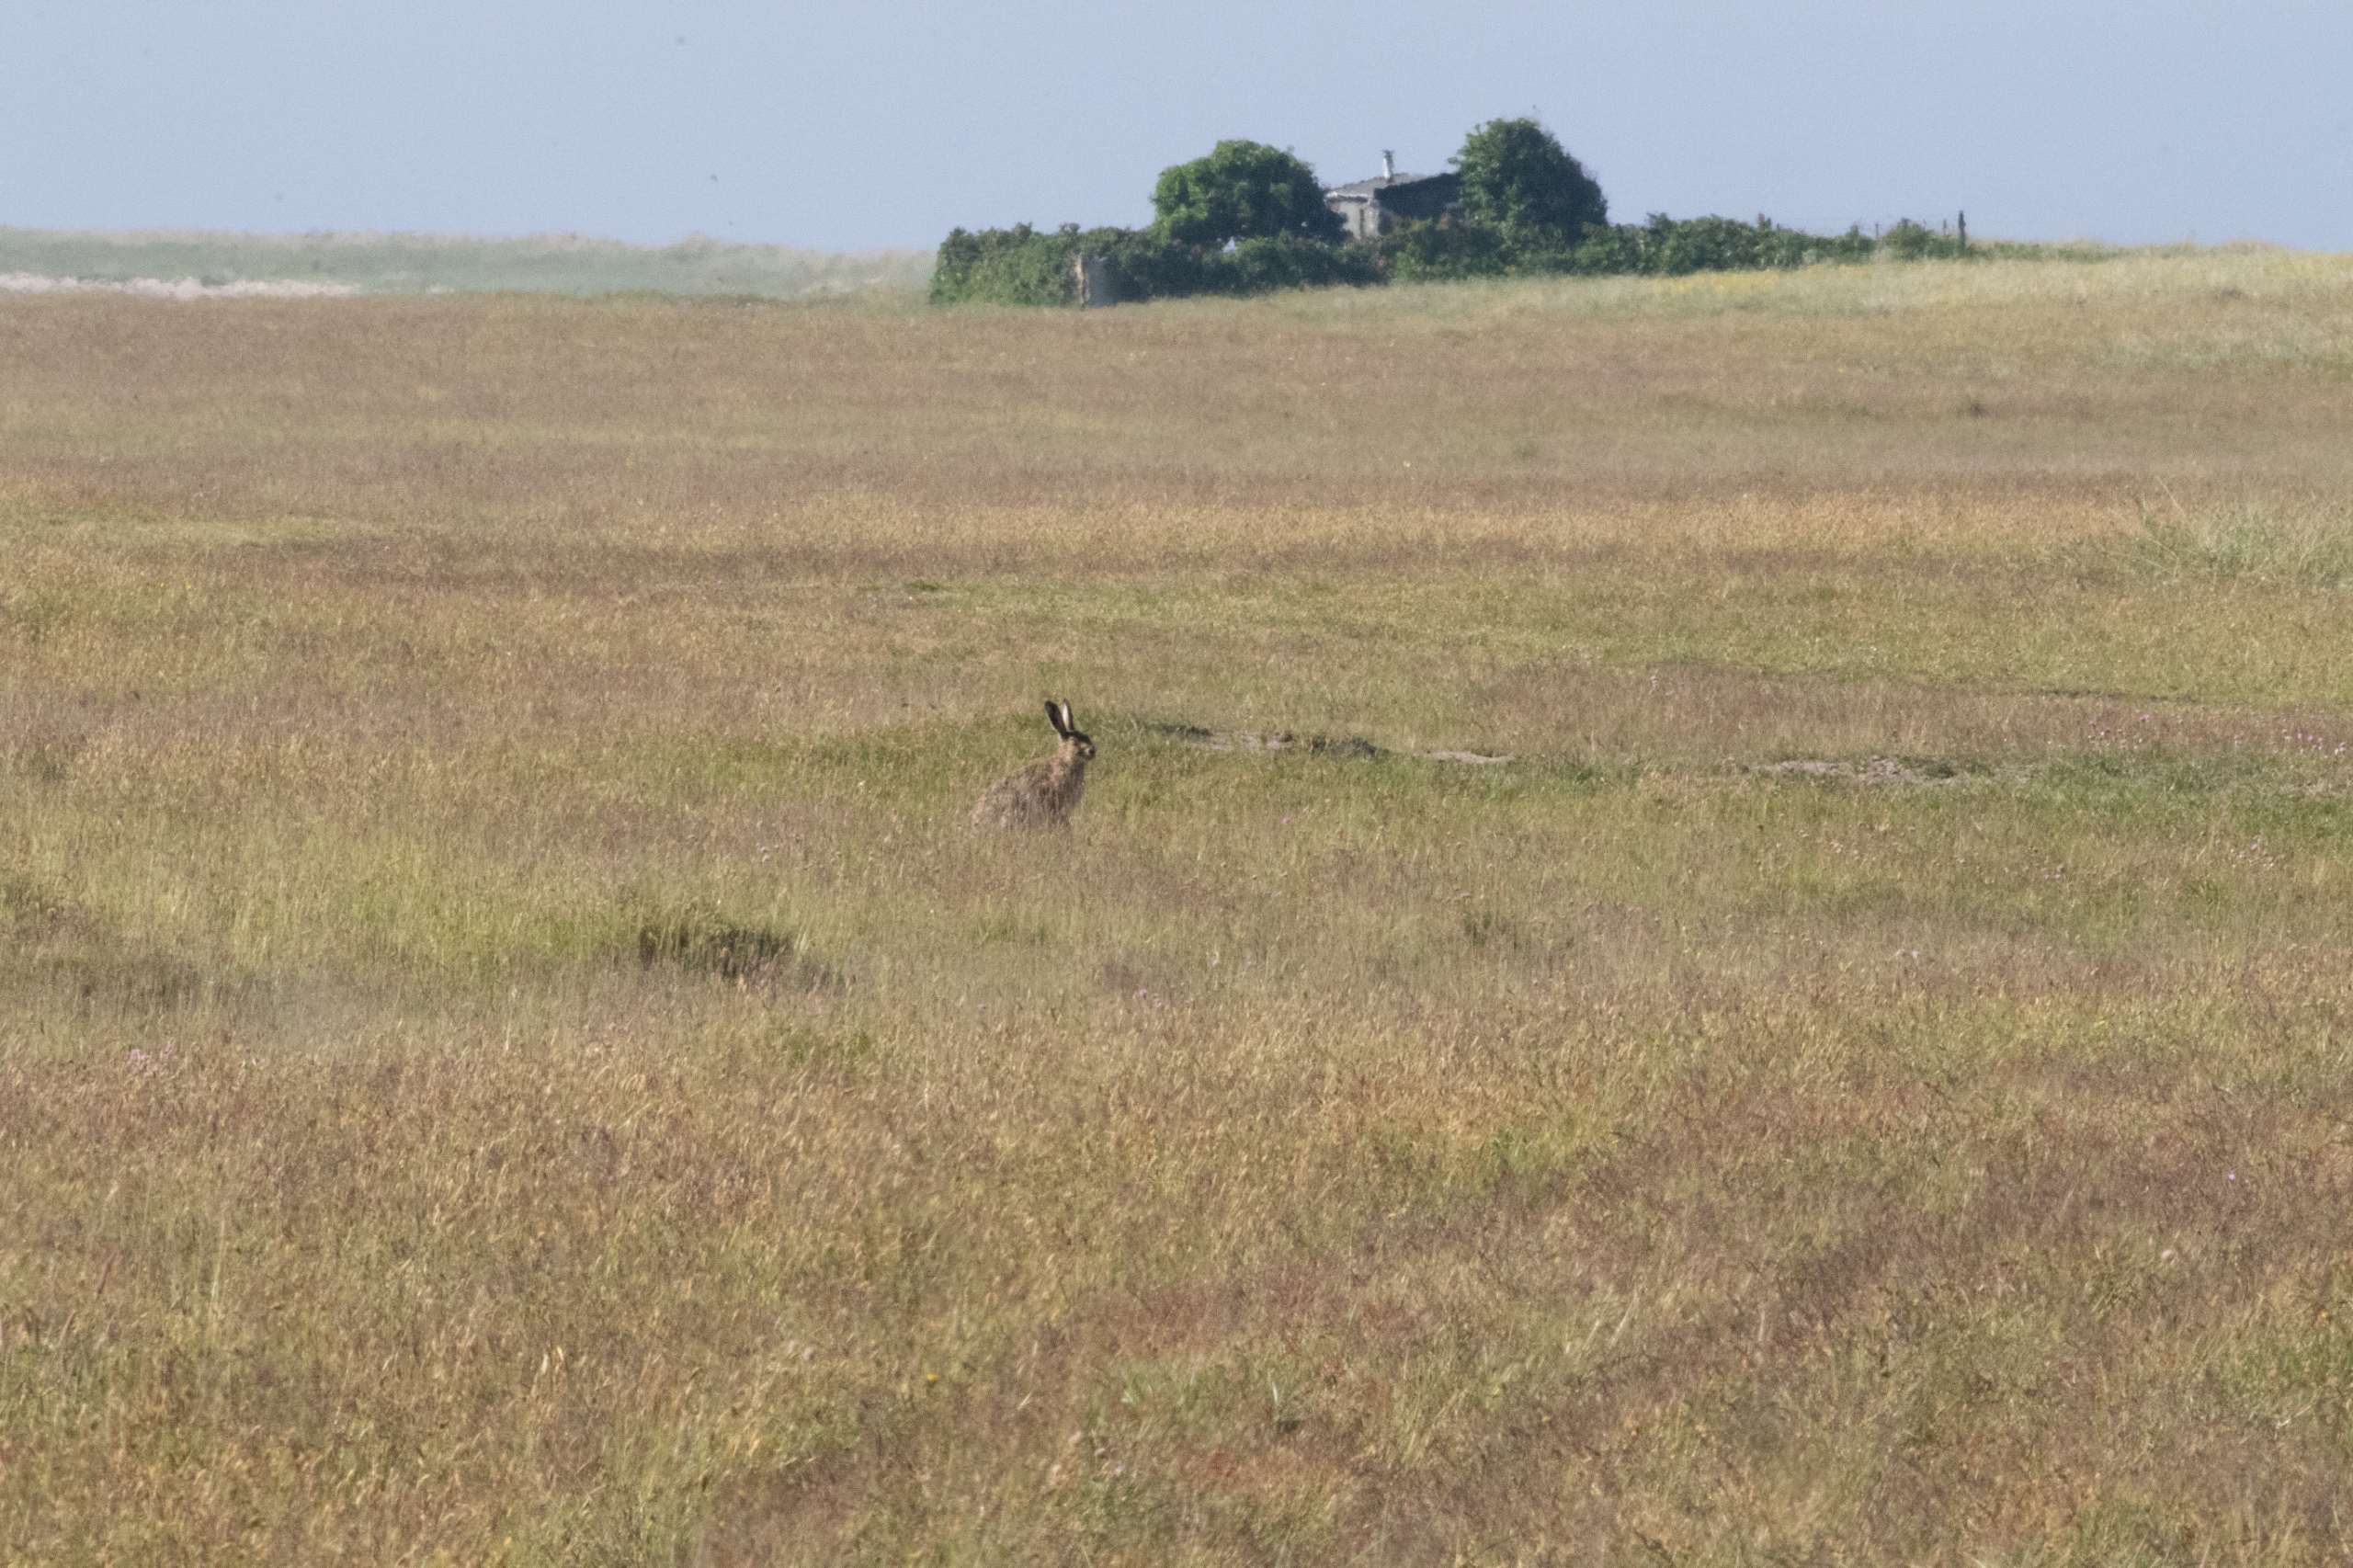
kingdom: Animalia
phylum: Chordata
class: Mammalia
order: Lagomorpha
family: Leporidae
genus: Lepus
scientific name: Lepus europaeus
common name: Hare
